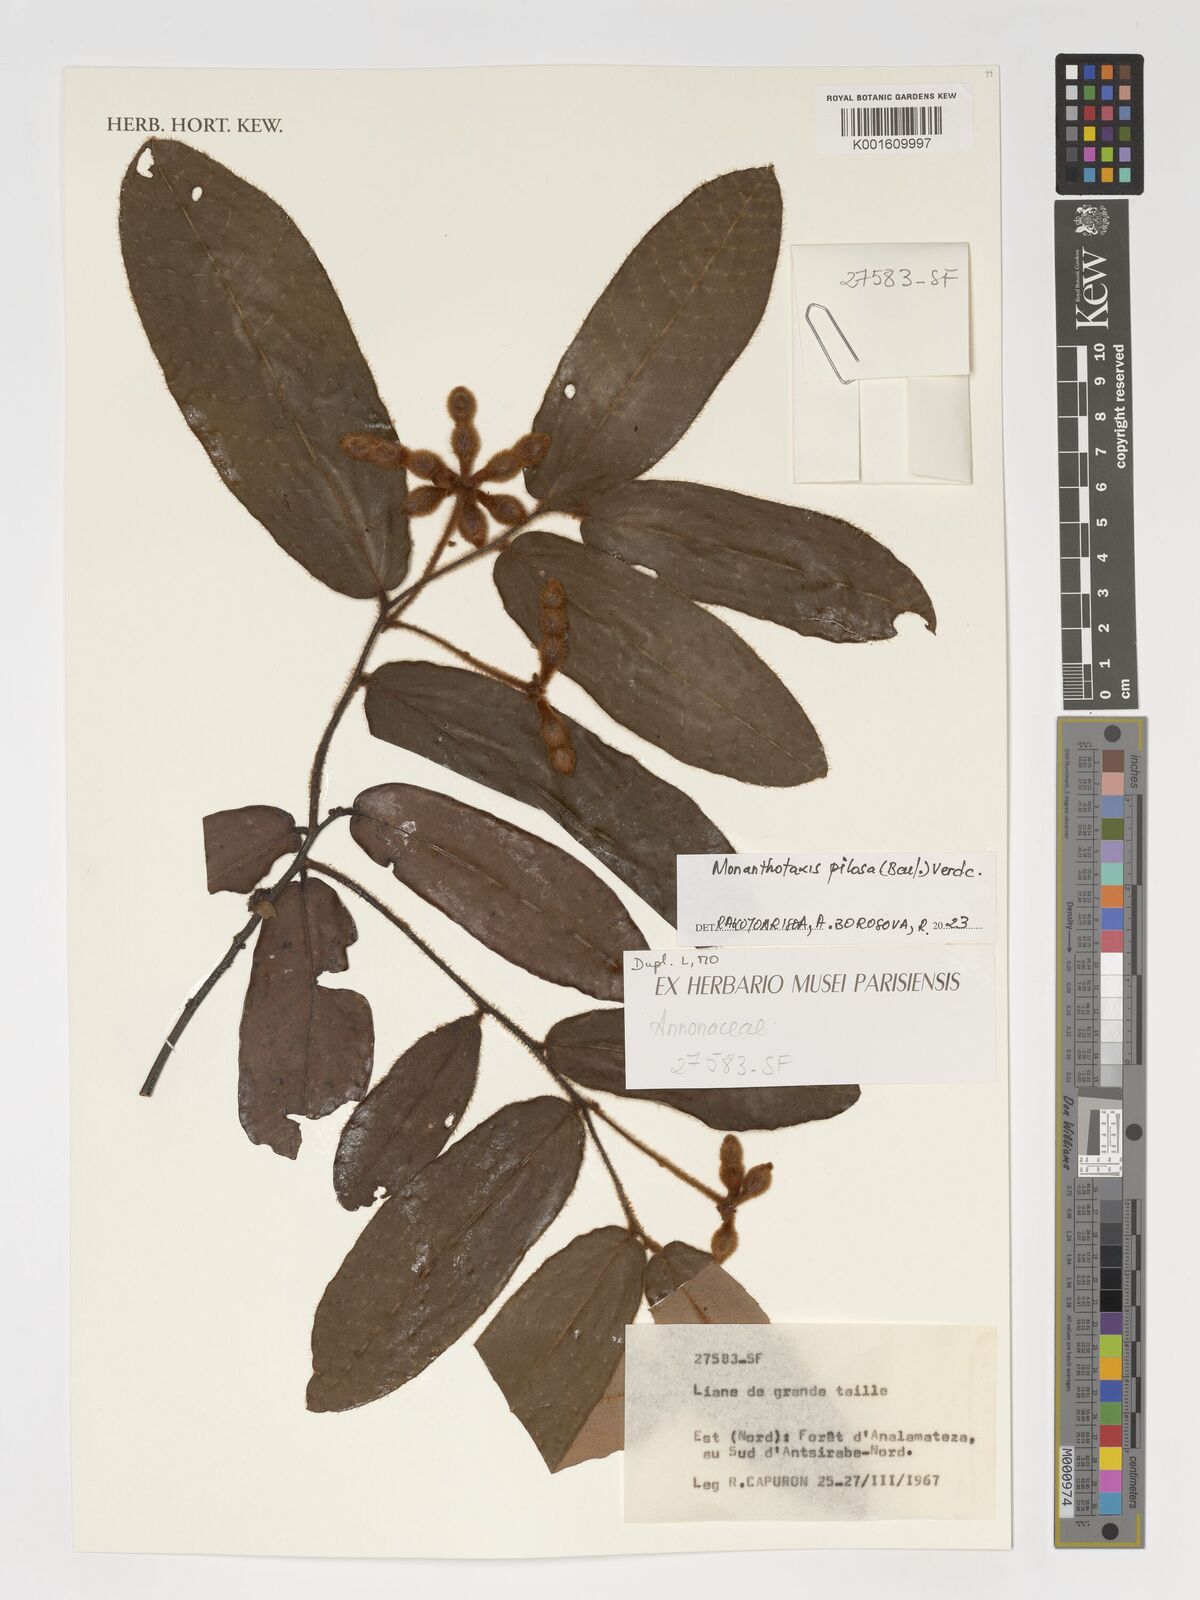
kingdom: Plantae
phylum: Tracheophyta
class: Magnoliopsida
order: Magnoliales
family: Annonaceae
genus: Monanthotaxis
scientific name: Monanthotaxis pilosa
